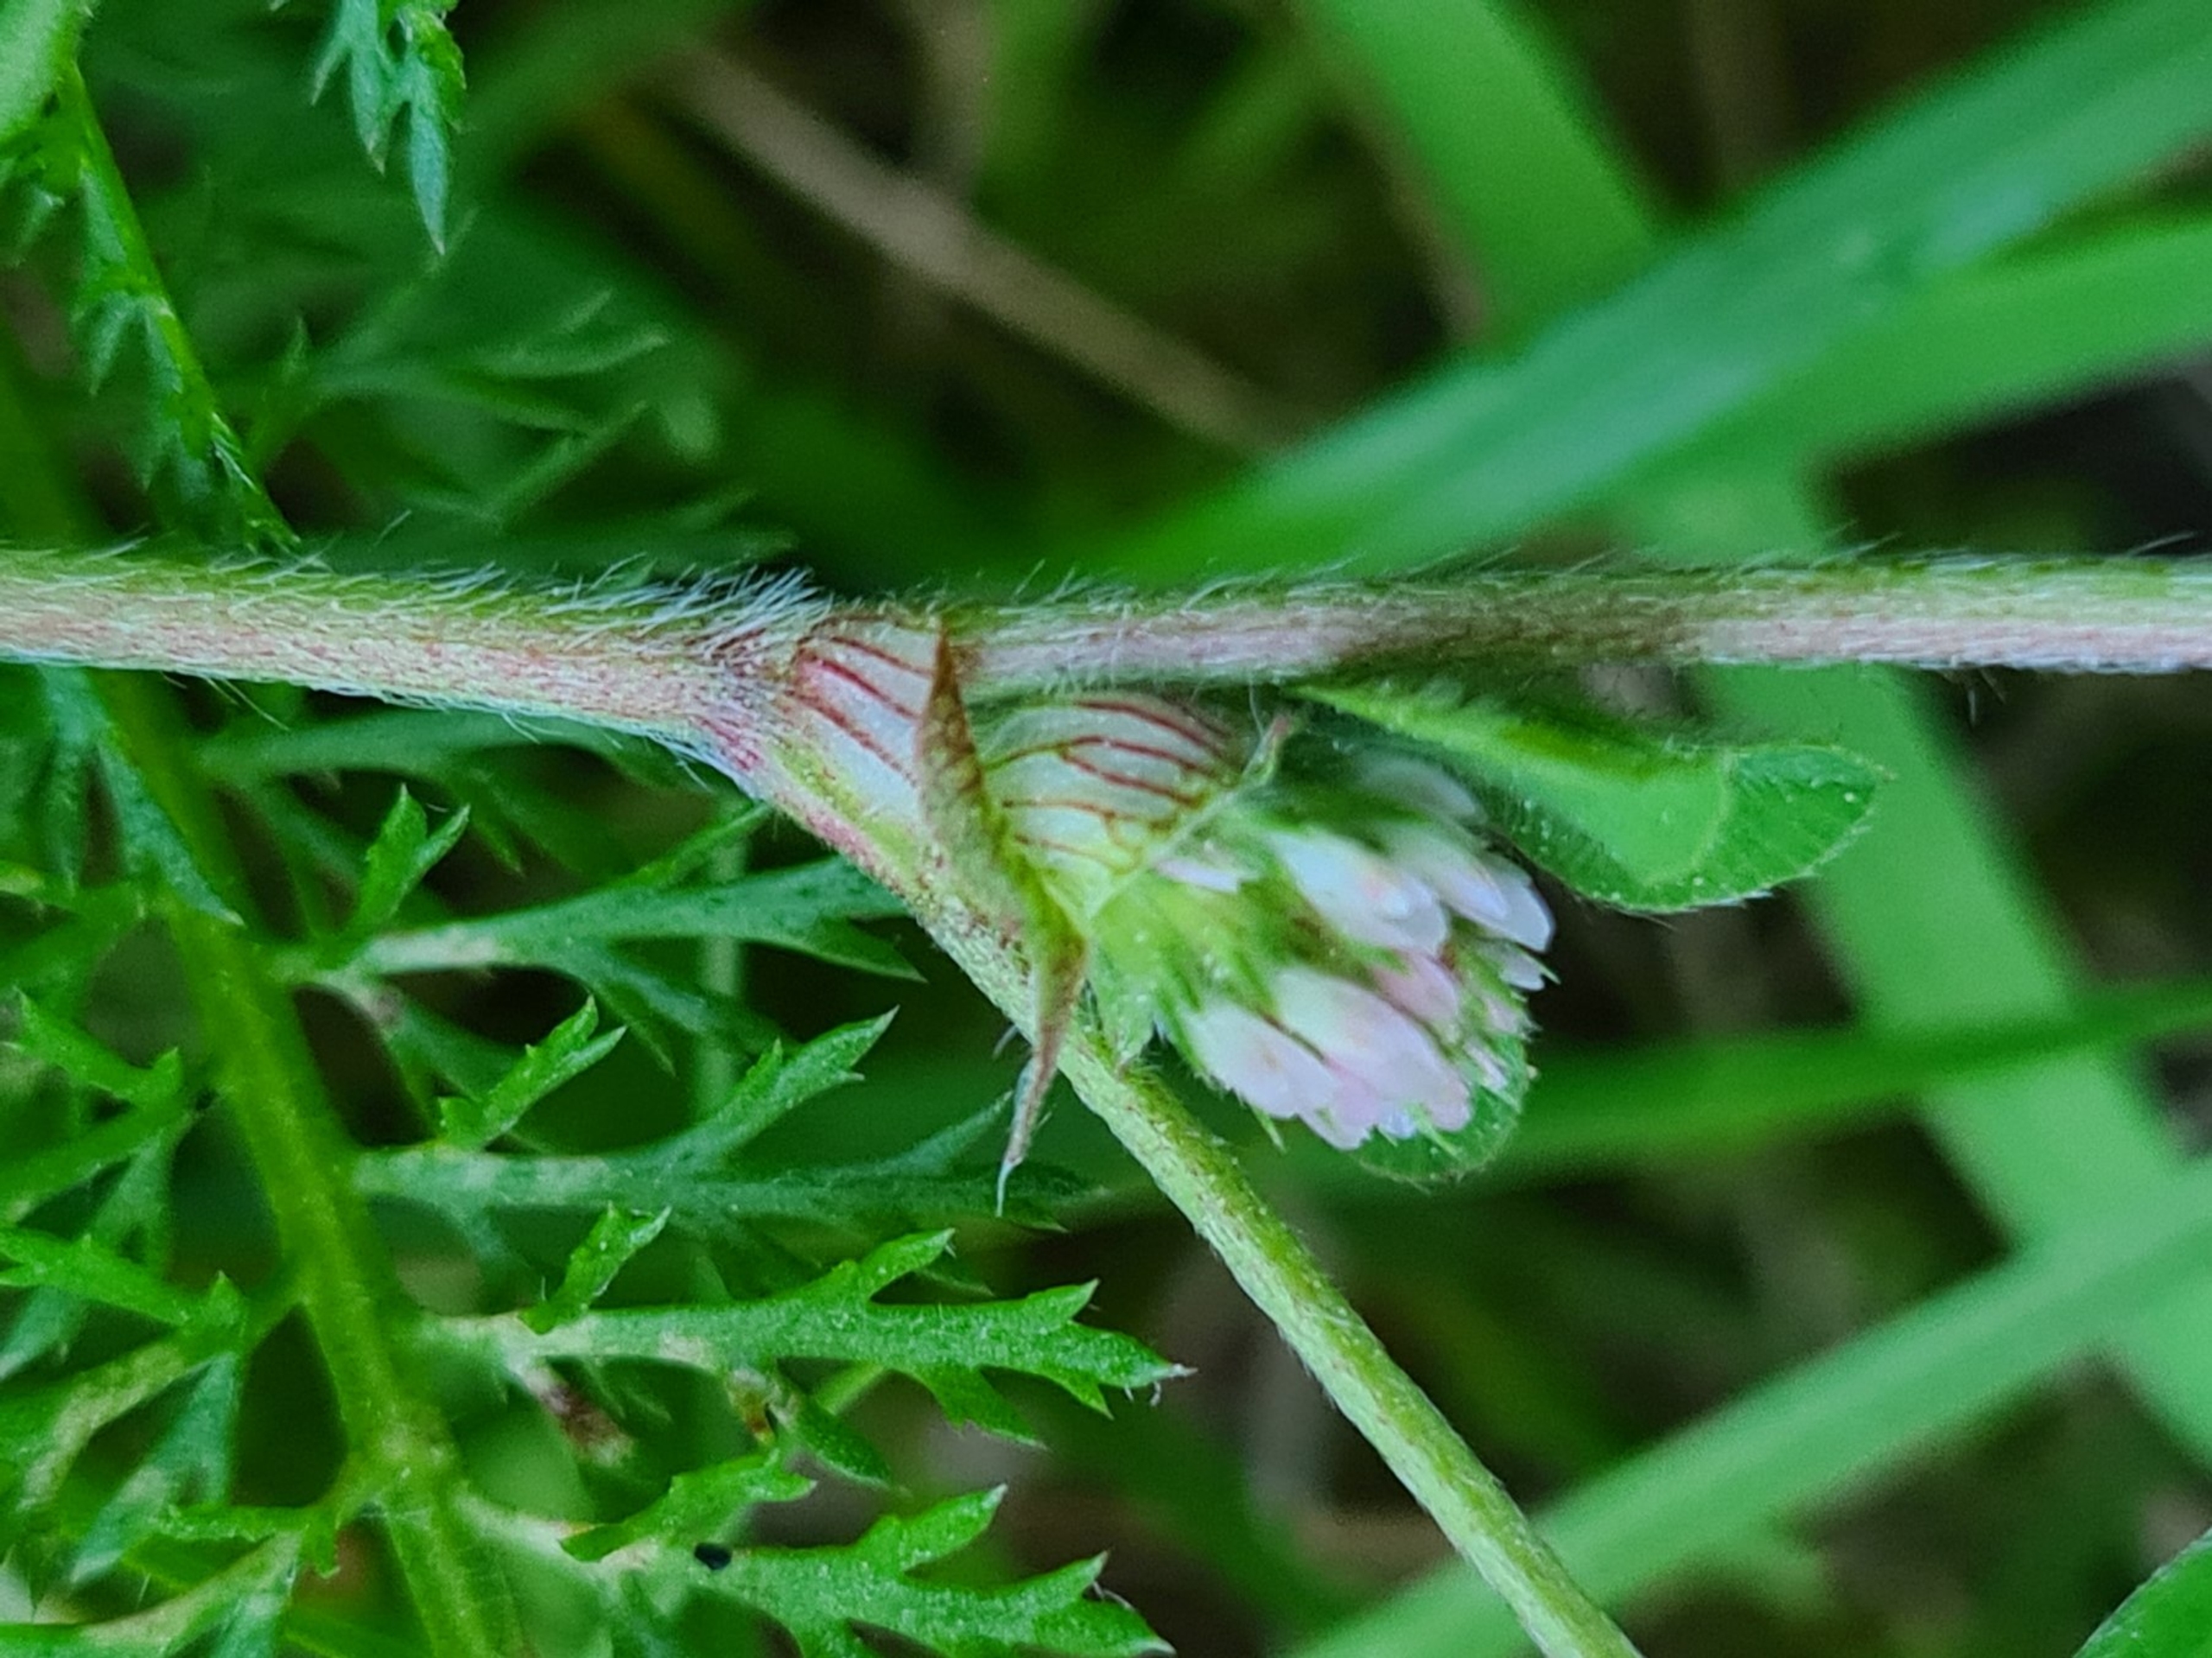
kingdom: Plantae
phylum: Tracheophyta
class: Magnoliopsida
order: Fabales
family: Fabaceae
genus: Trifolium
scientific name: Trifolium striatum
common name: Stribet kløver
